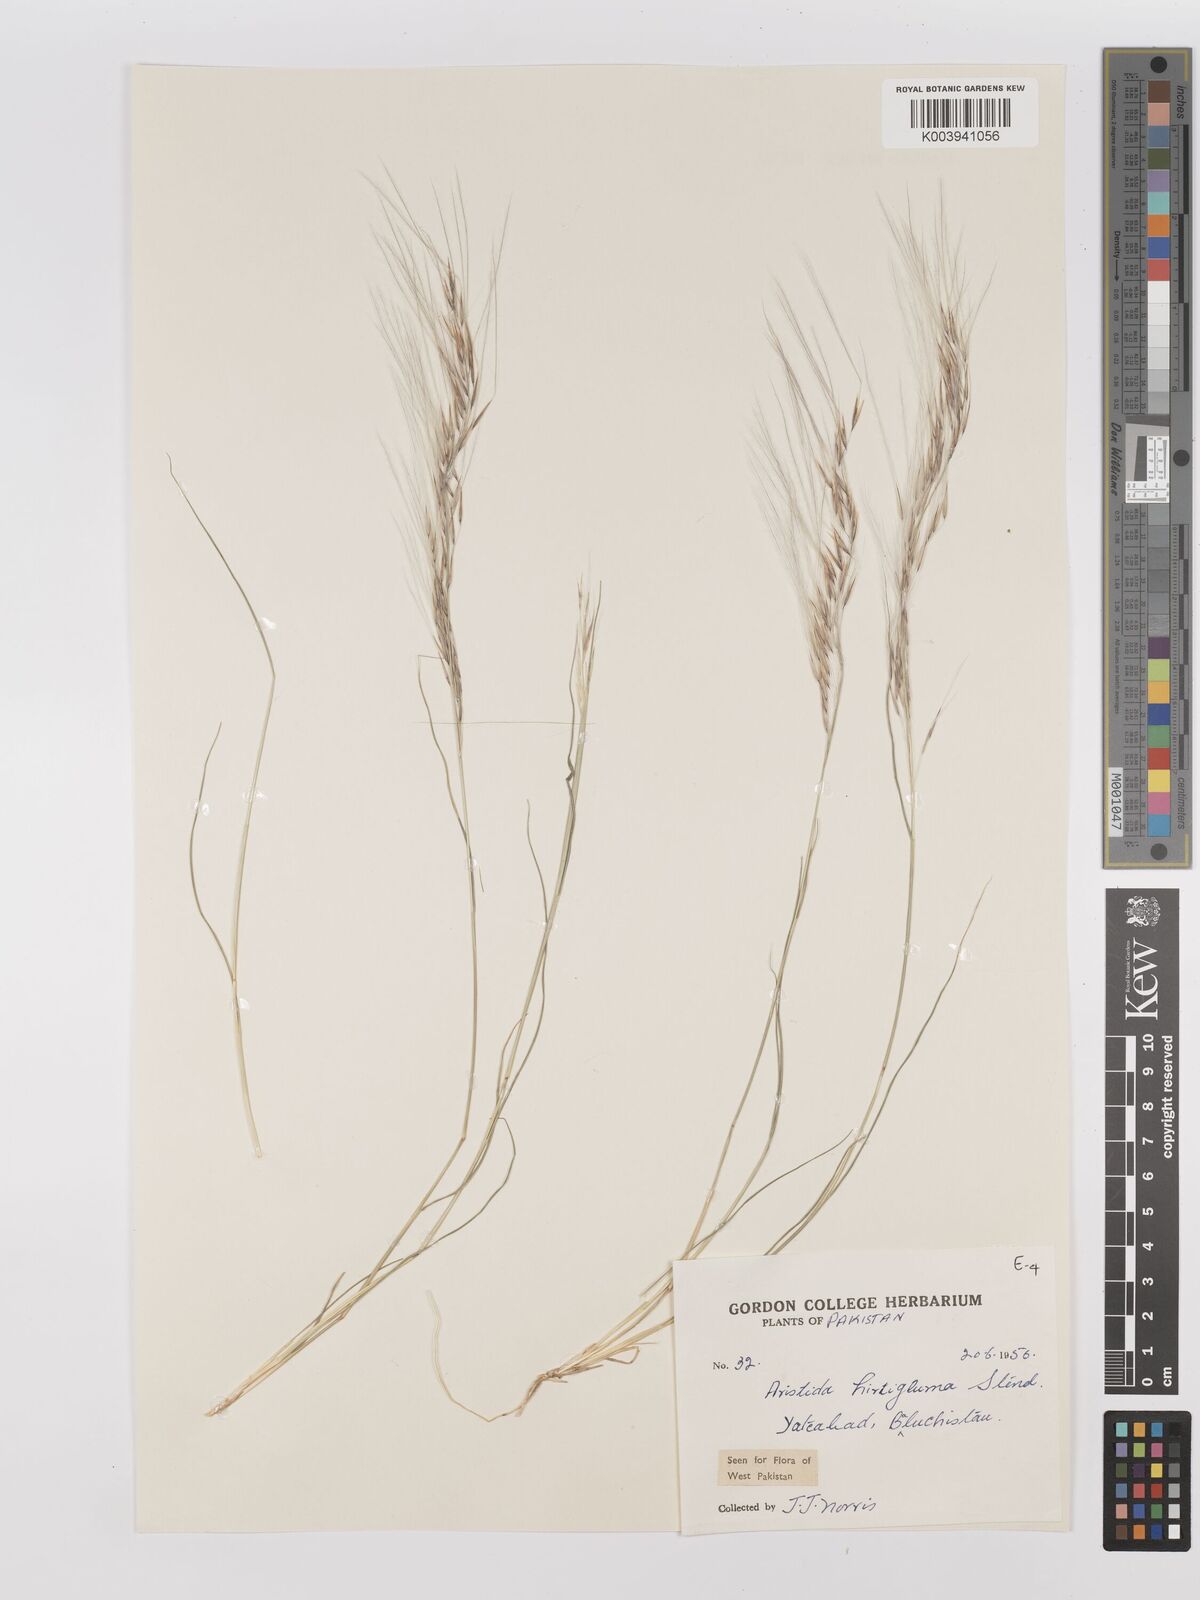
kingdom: Plantae
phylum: Tracheophyta
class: Liliopsida
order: Poales
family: Poaceae
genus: Stipagrostis
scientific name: Stipagrostis hirtigluma
